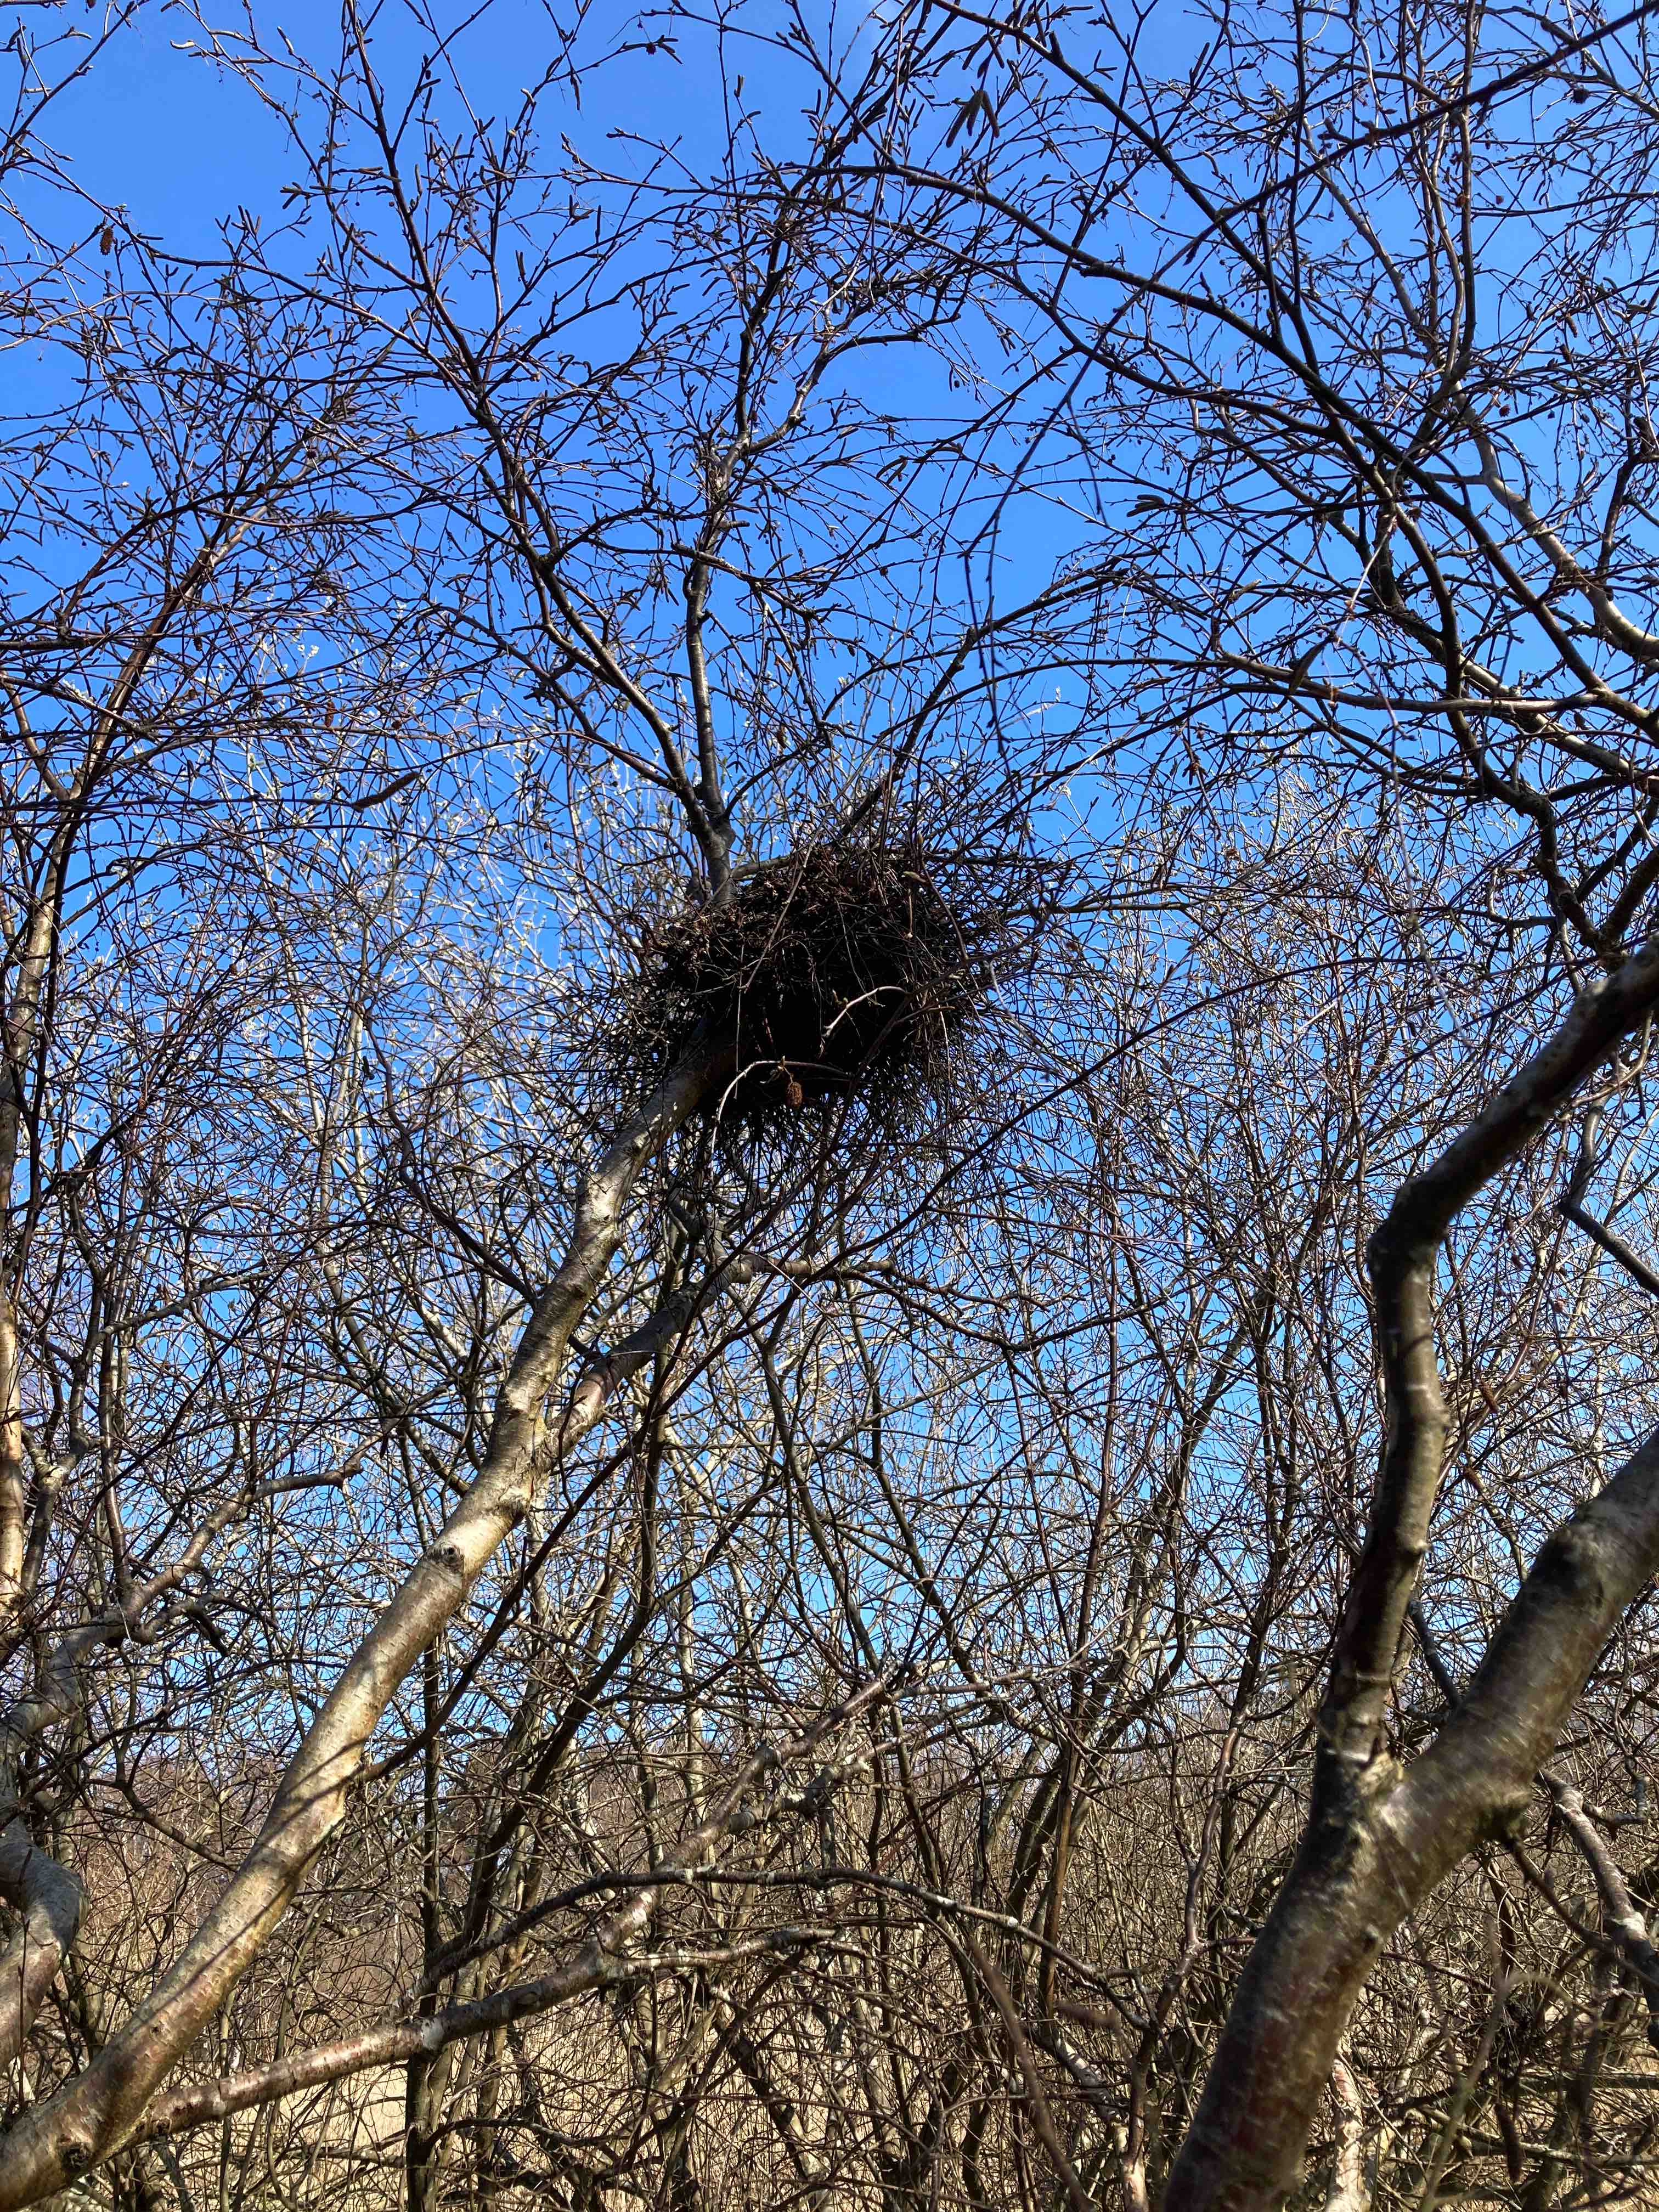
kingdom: Fungi
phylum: Ascomycota
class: Taphrinomycetes
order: Taphrinales
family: Taphrinaceae
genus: Taphrina
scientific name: Taphrina betulina
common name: hekse-sækdug
